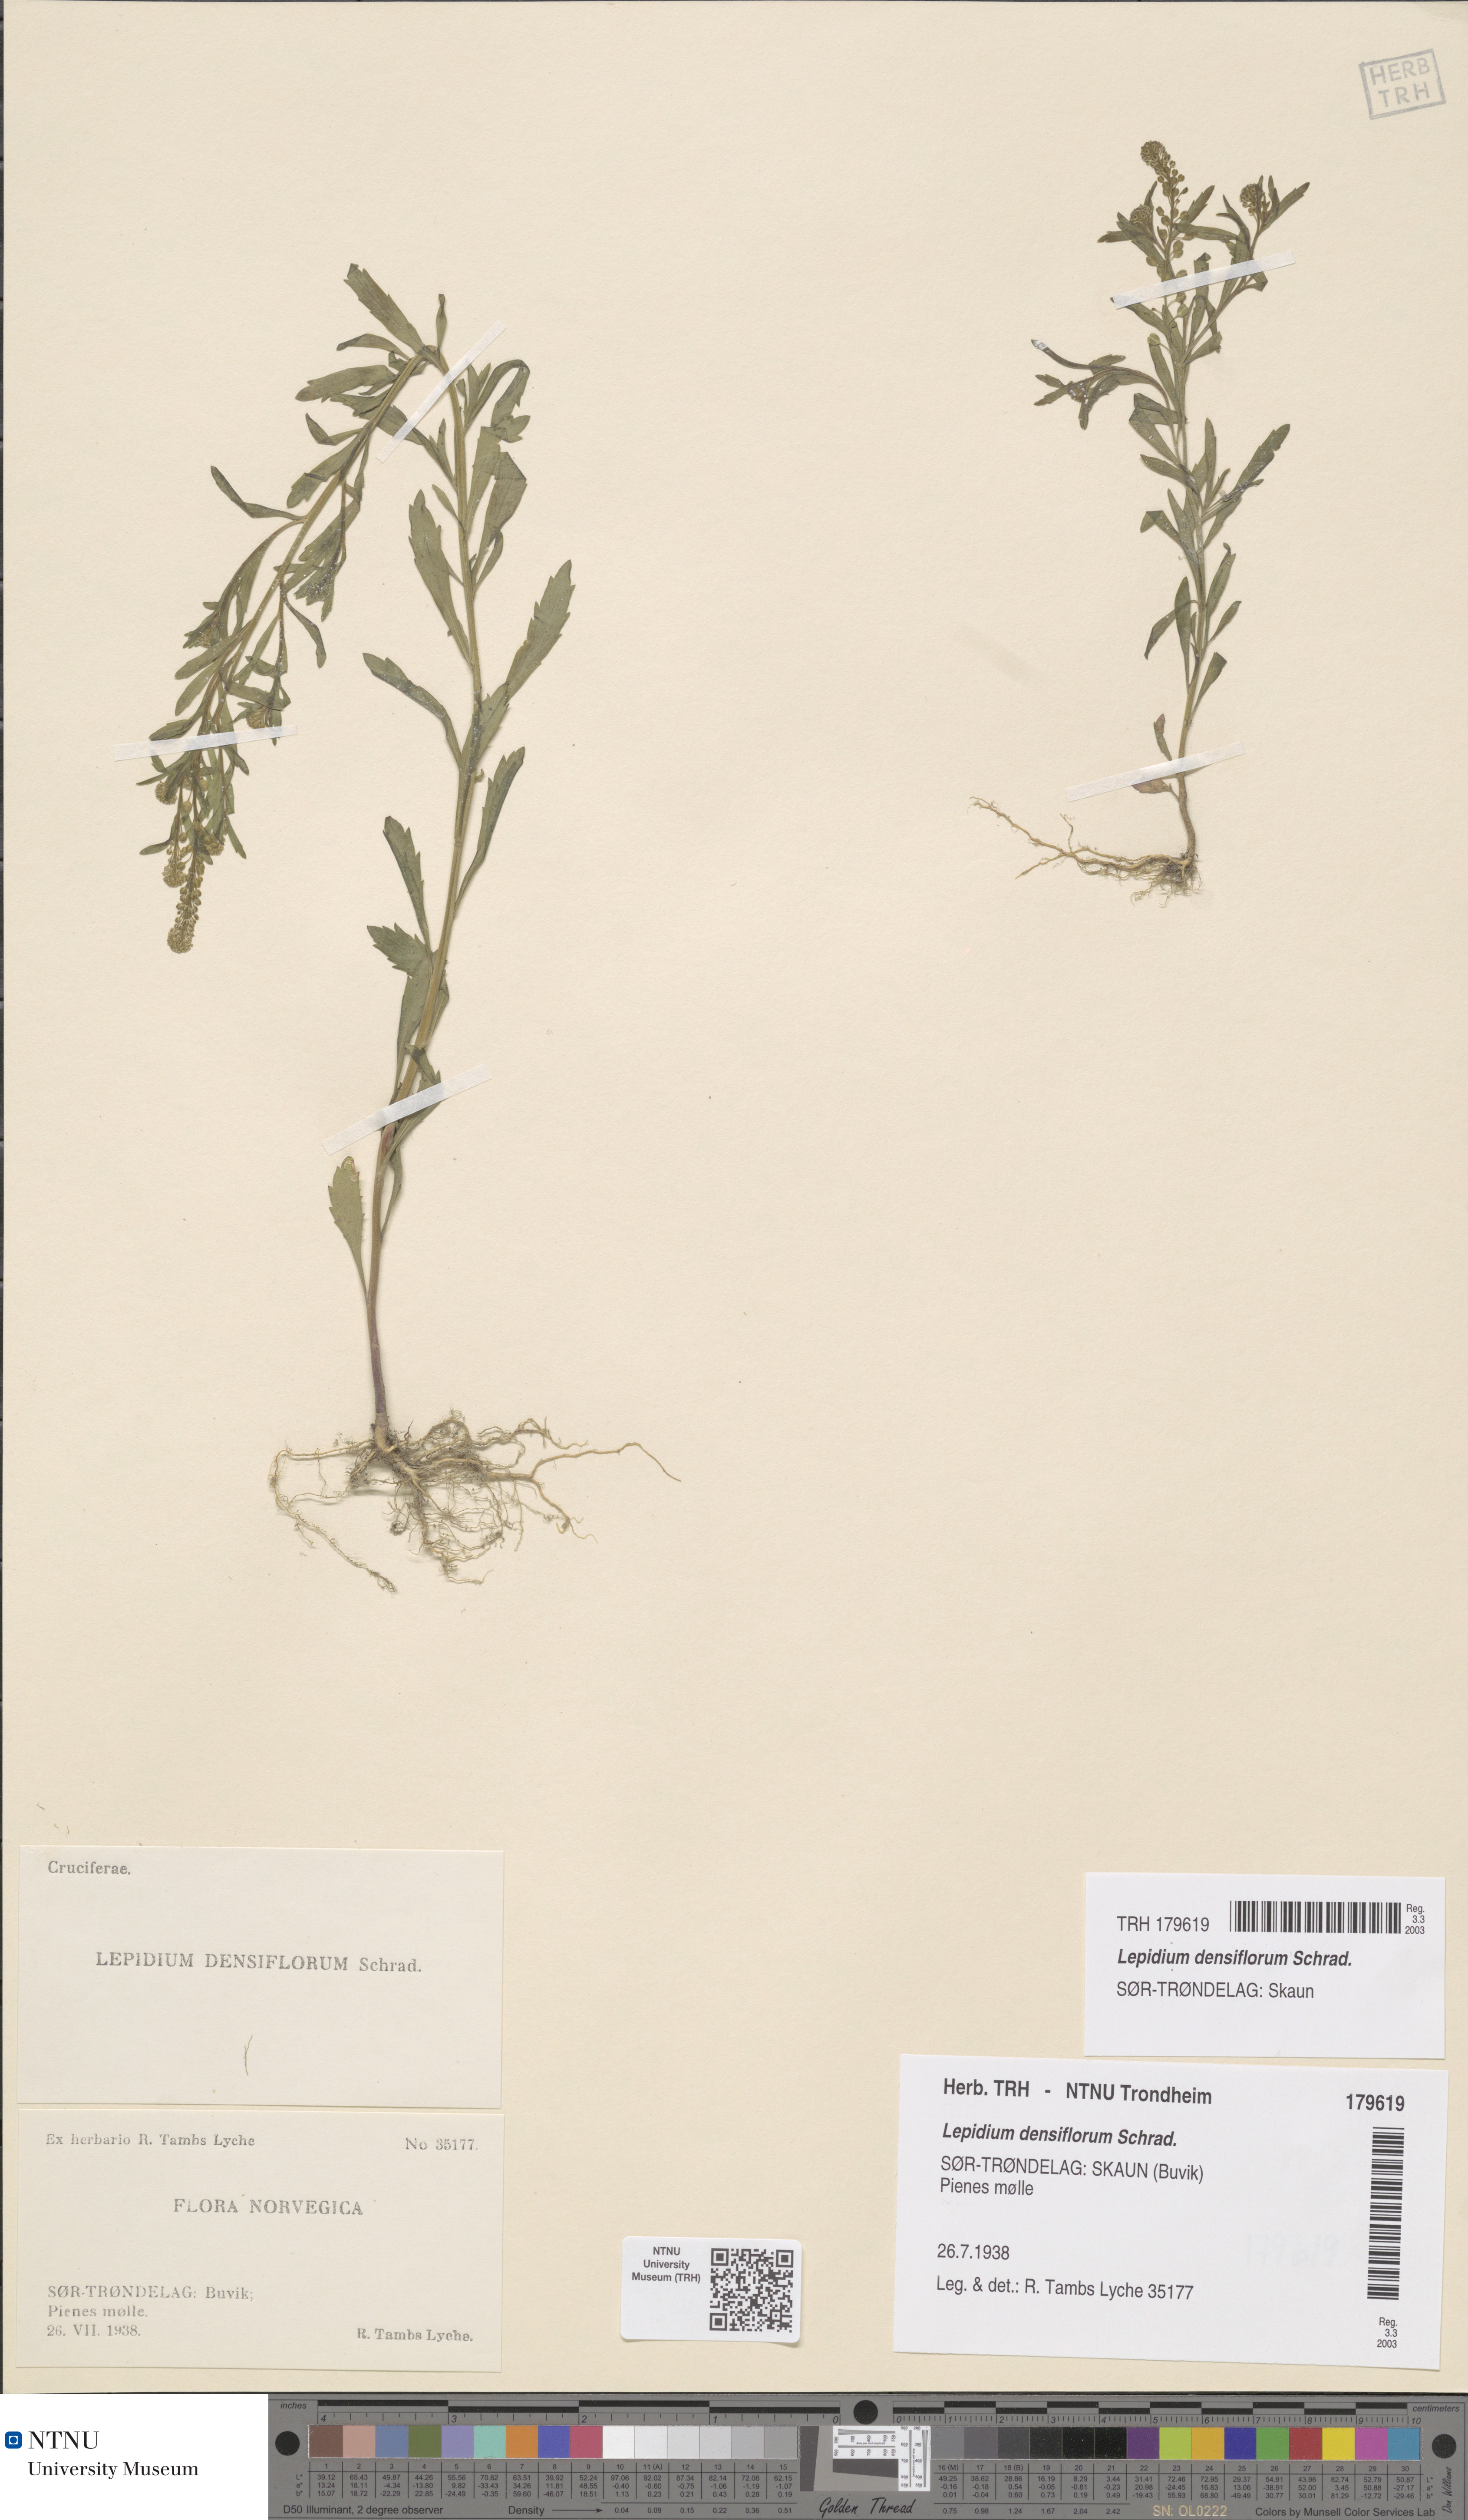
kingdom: Plantae
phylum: Tracheophyta
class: Magnoliopsida
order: Brassicales
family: Brassicaceae
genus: Lepidium
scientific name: Lepidium densiflorum
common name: Miner's pepperwort
